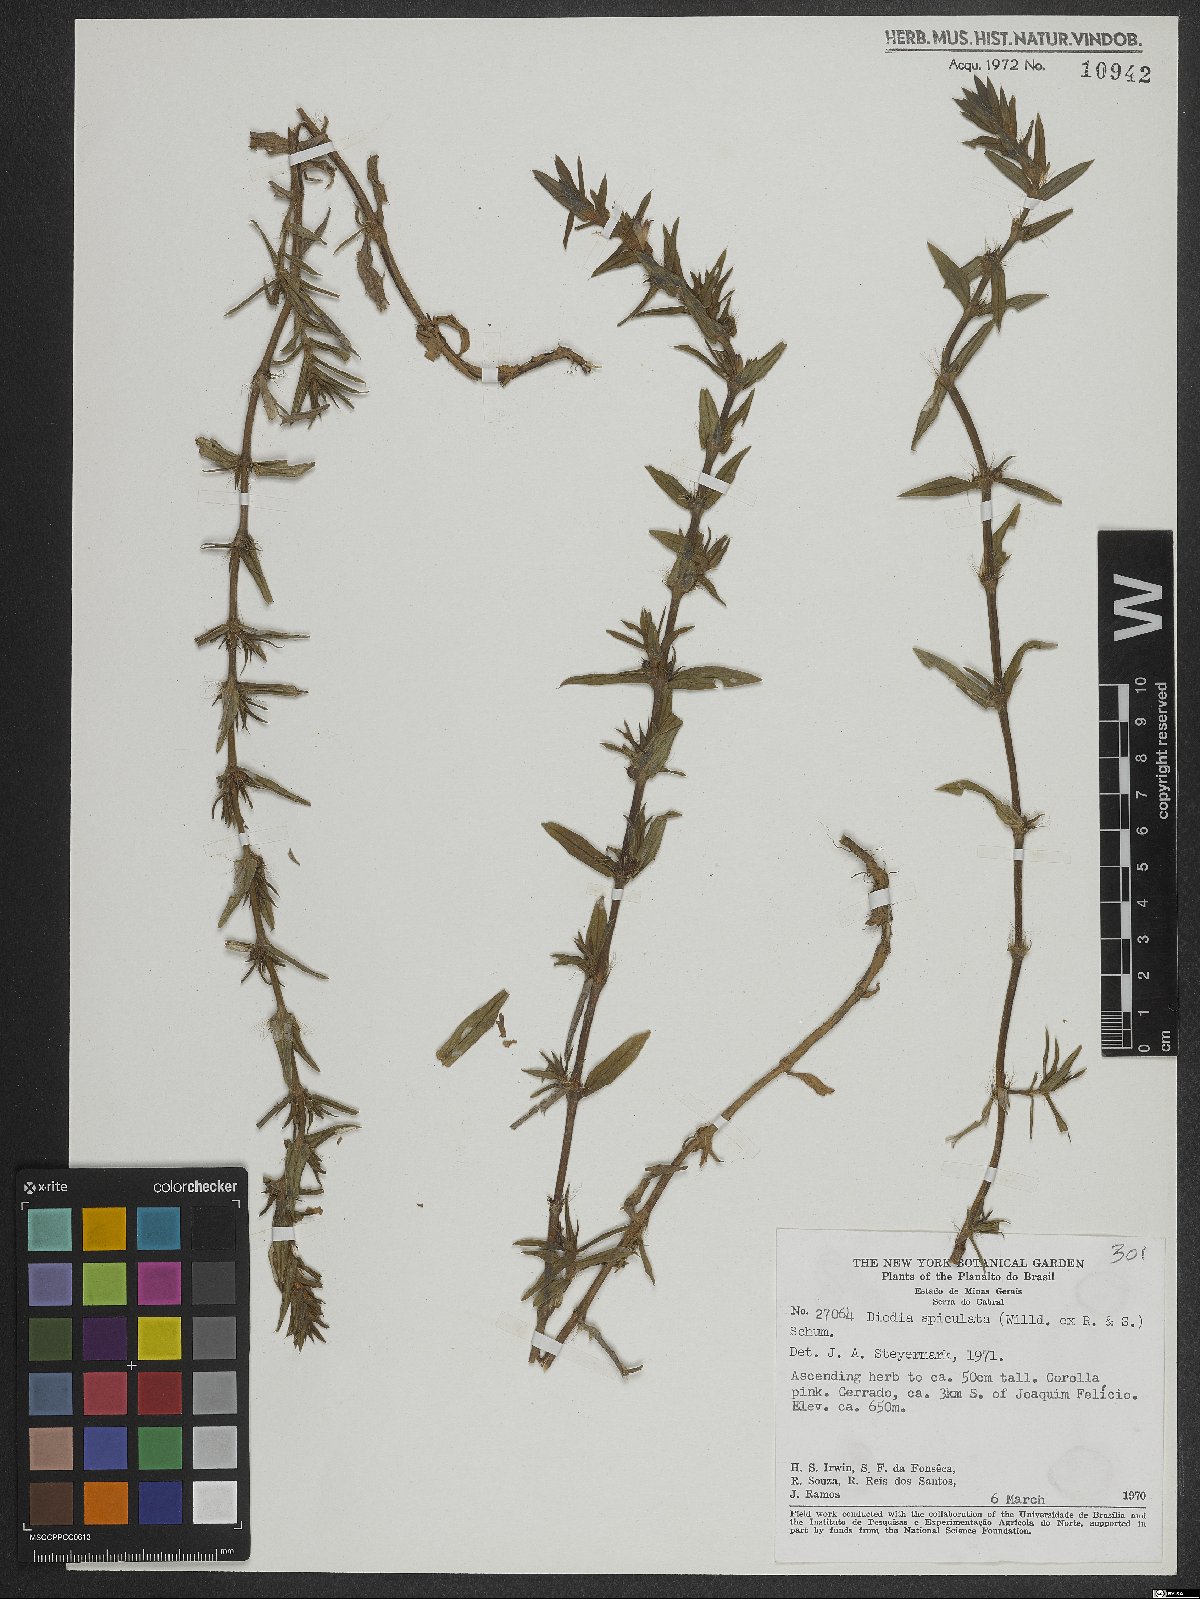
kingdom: Plantae
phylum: Tracheophyta
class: Magnoliopsida
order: Gentianales
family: Rubiaceae
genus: Hexasepalum
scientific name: Hexasepalum apiculatum
